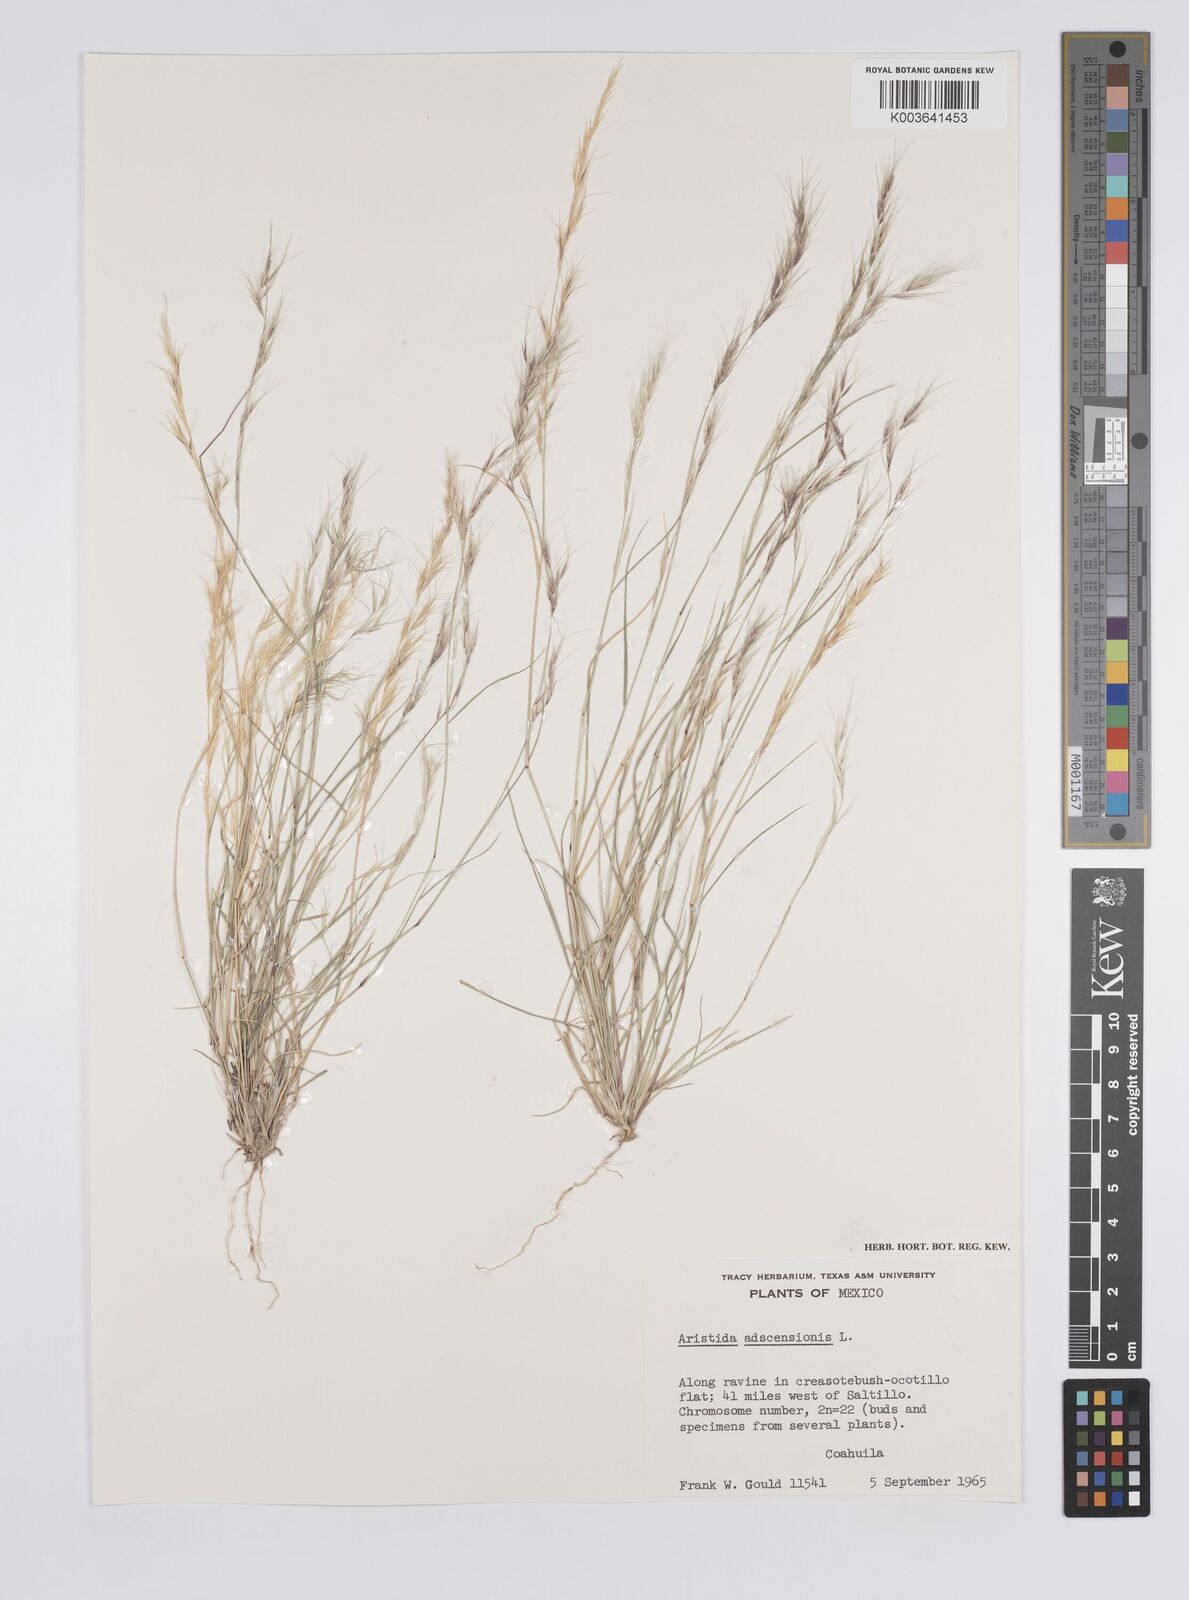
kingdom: Plantae
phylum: Tracheophyta
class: Liliopsida
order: Poales
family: Poaceae
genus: Aristida
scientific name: Aristida adscensionis
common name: Sixweeks threeawn
